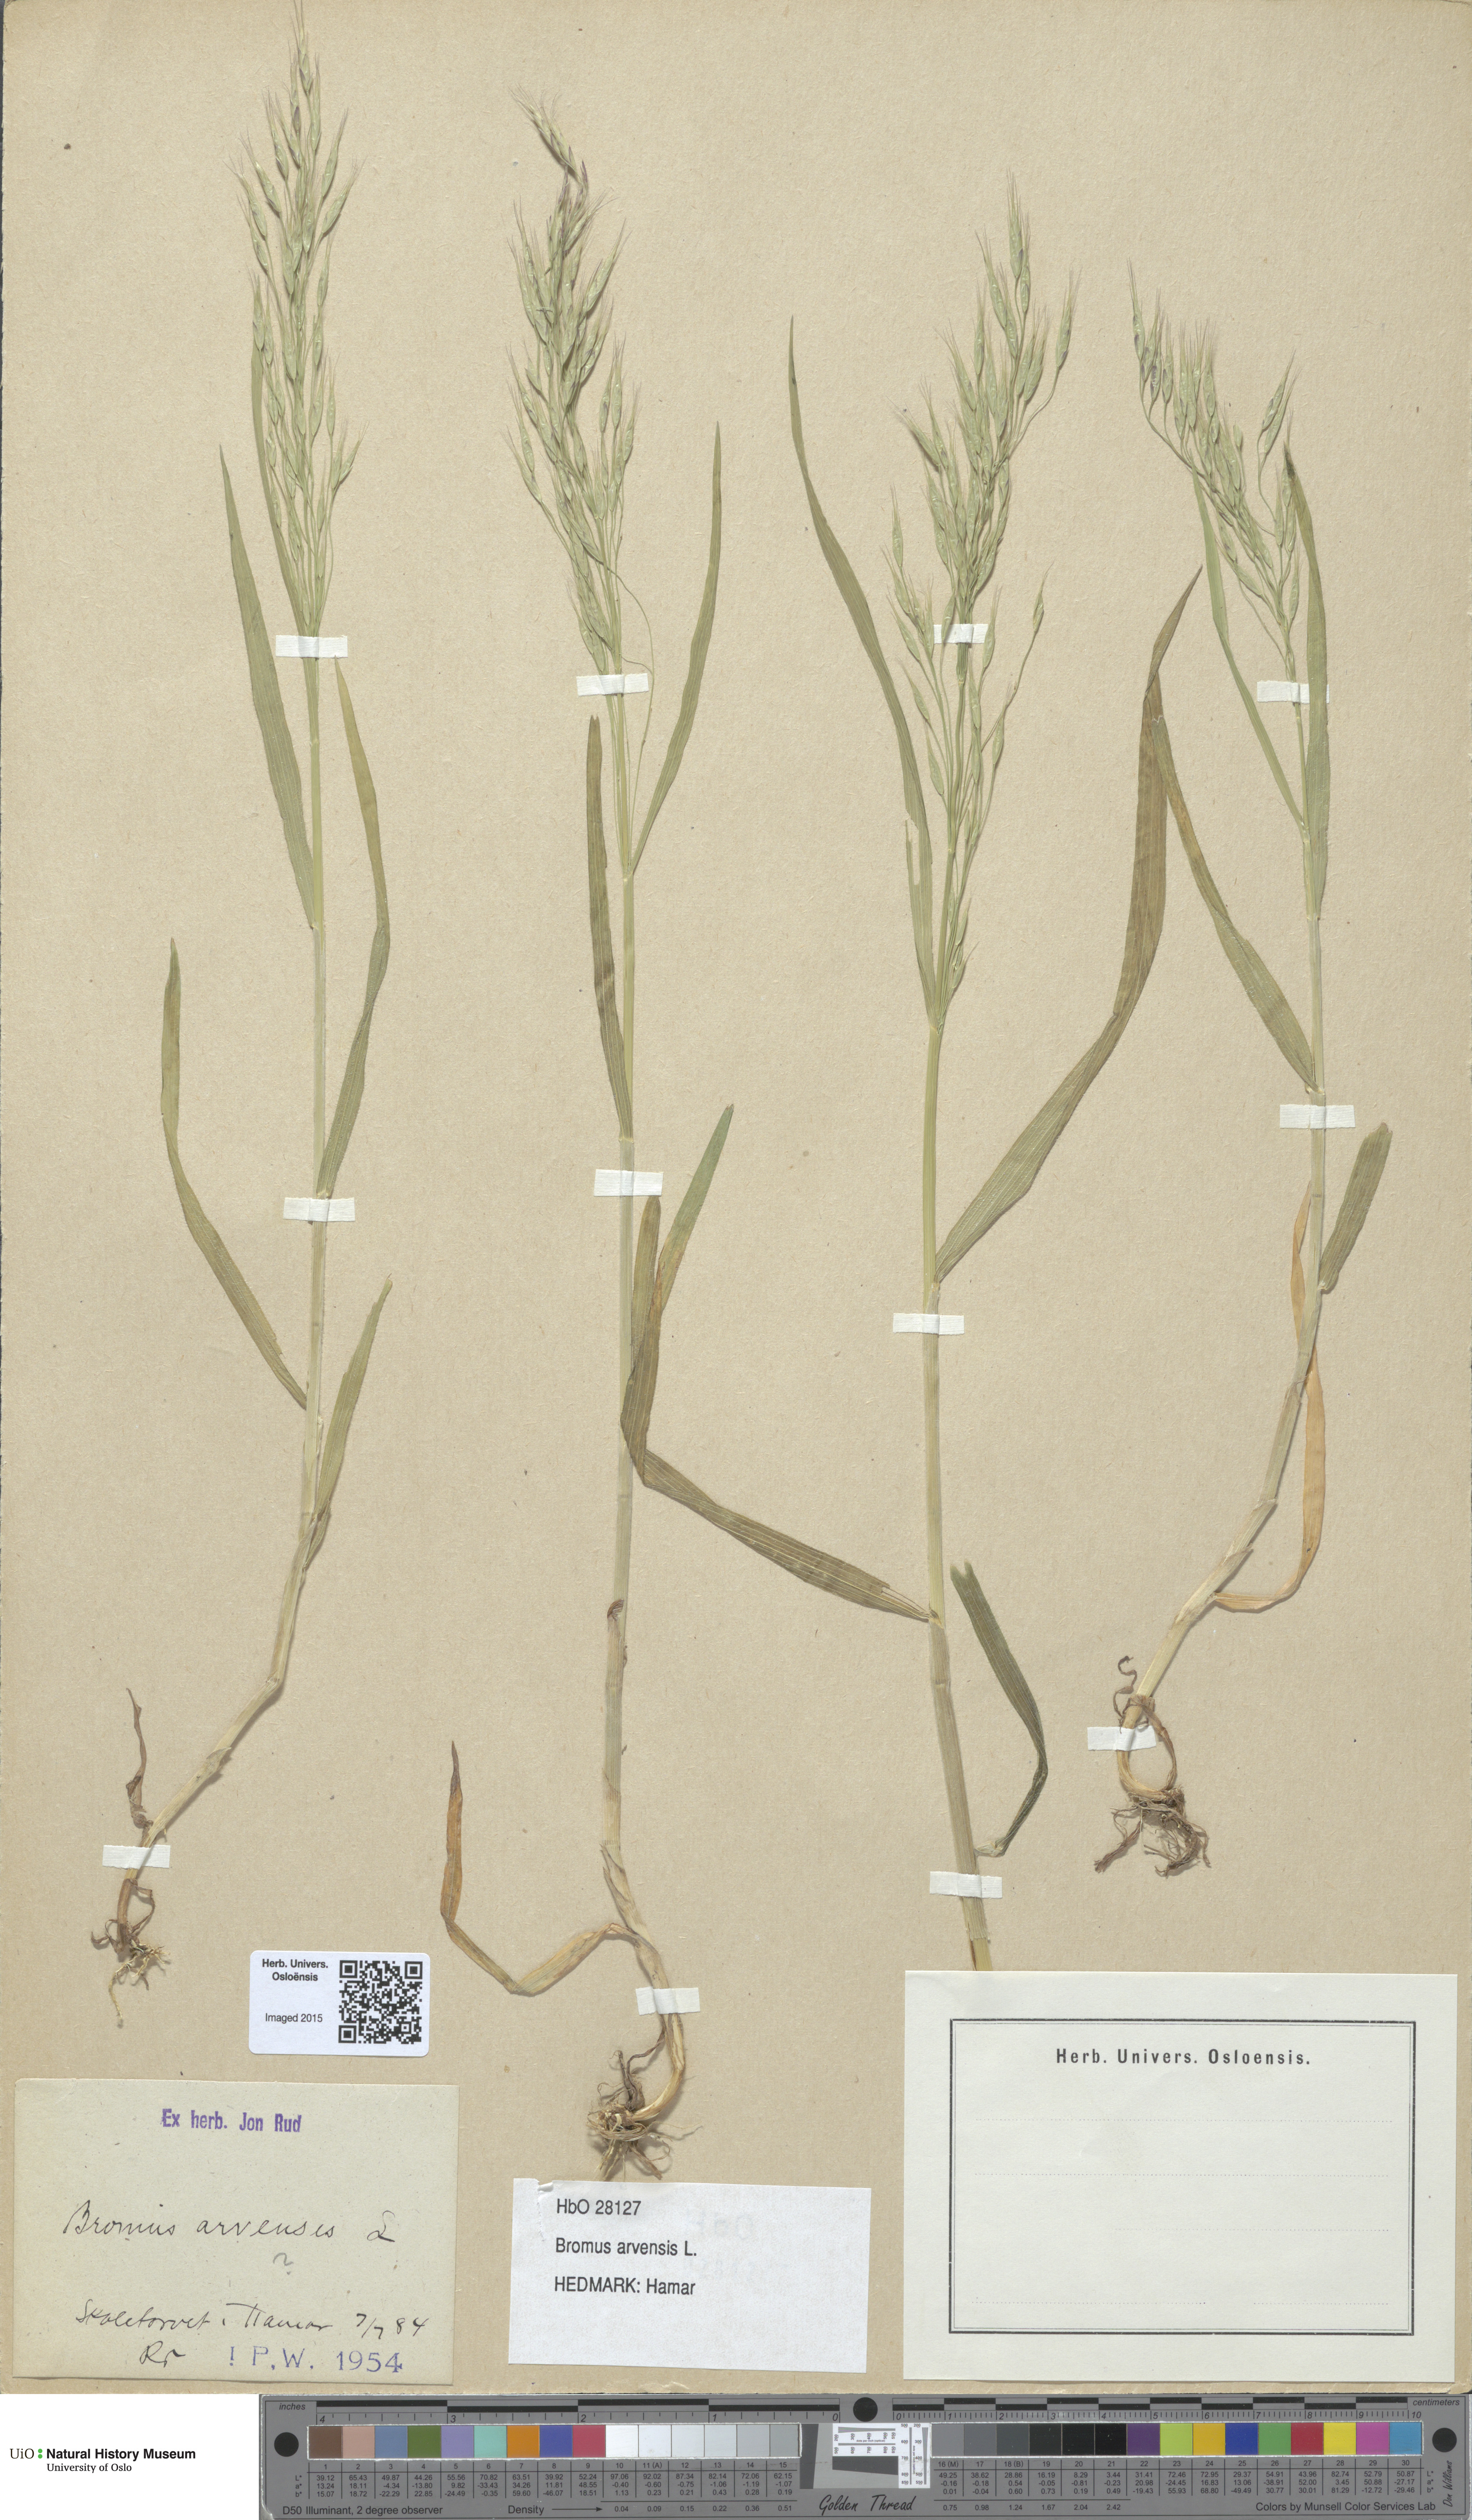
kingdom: Plantae
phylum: Tracheophyta
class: Liliopsida
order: Poales
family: Poaceae
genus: Bromus
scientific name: Bromus arvensis
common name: Field brome
